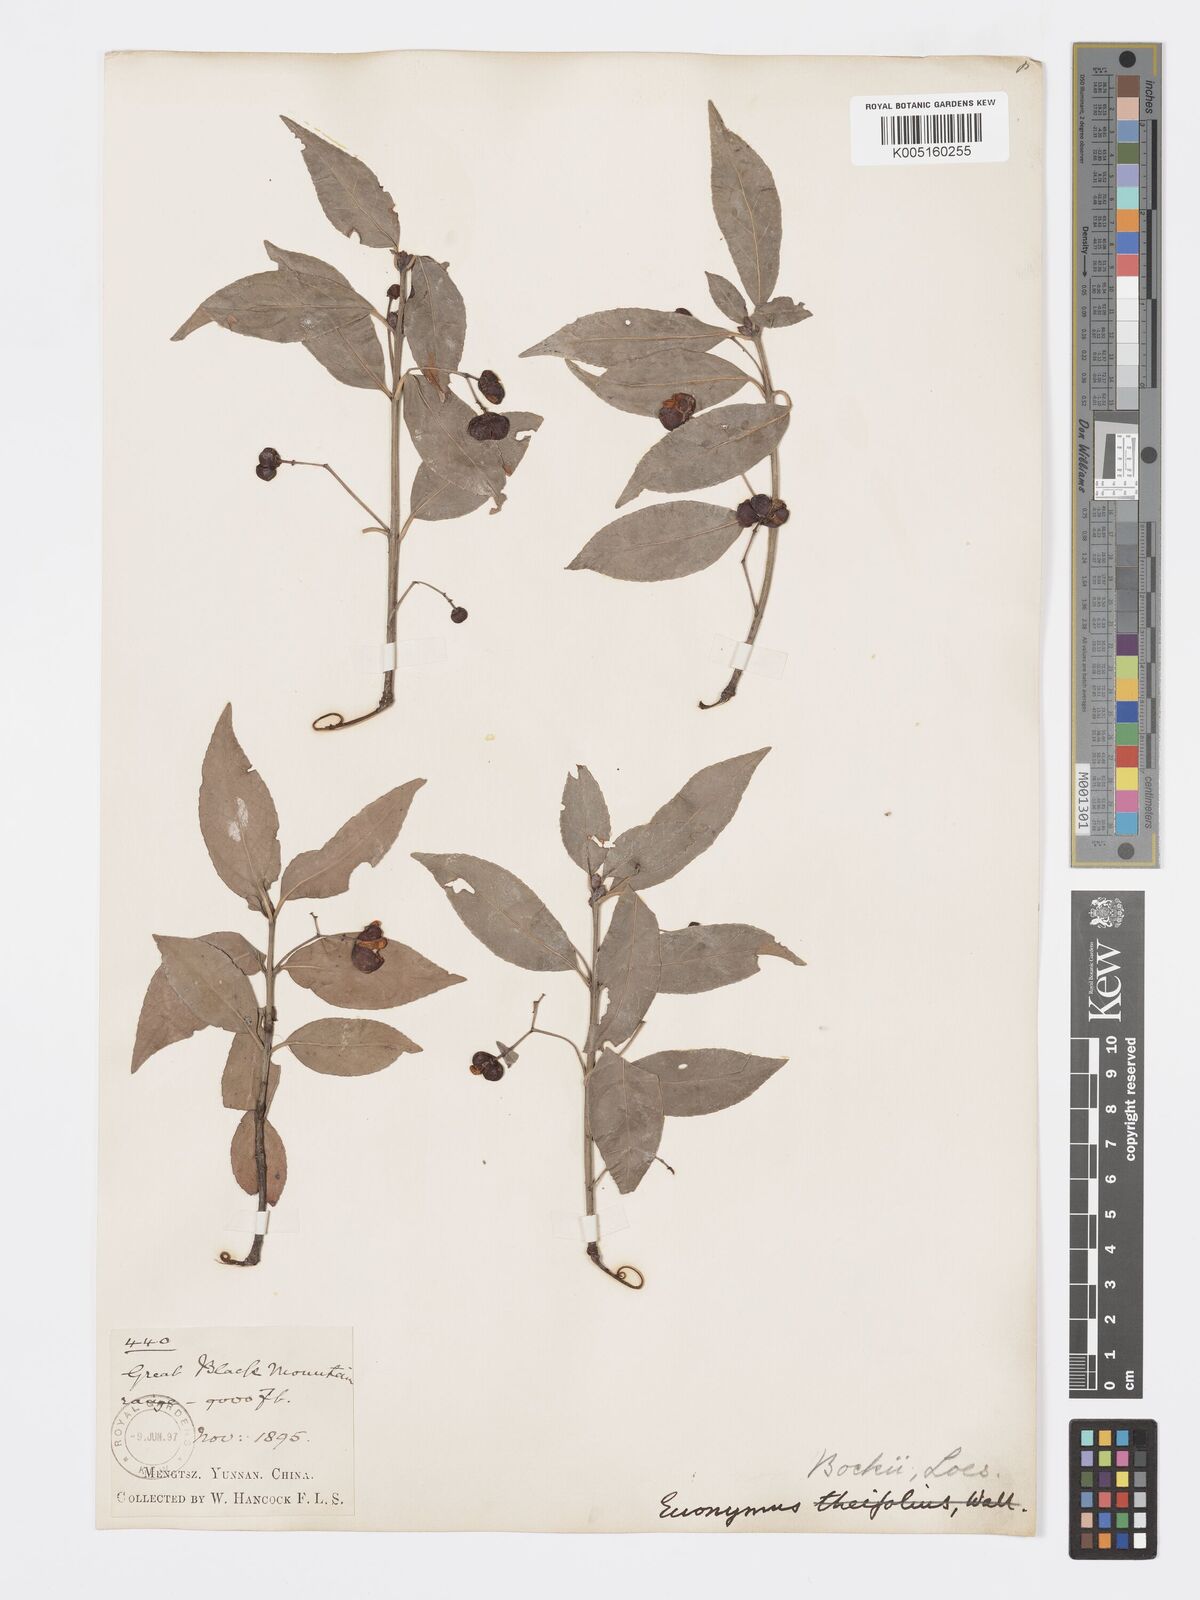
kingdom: Plantae
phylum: Tracheophyta
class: Magnoliopsida
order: Celastrales
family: Celastraceae
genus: Euonymus
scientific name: Euonymus bockii
